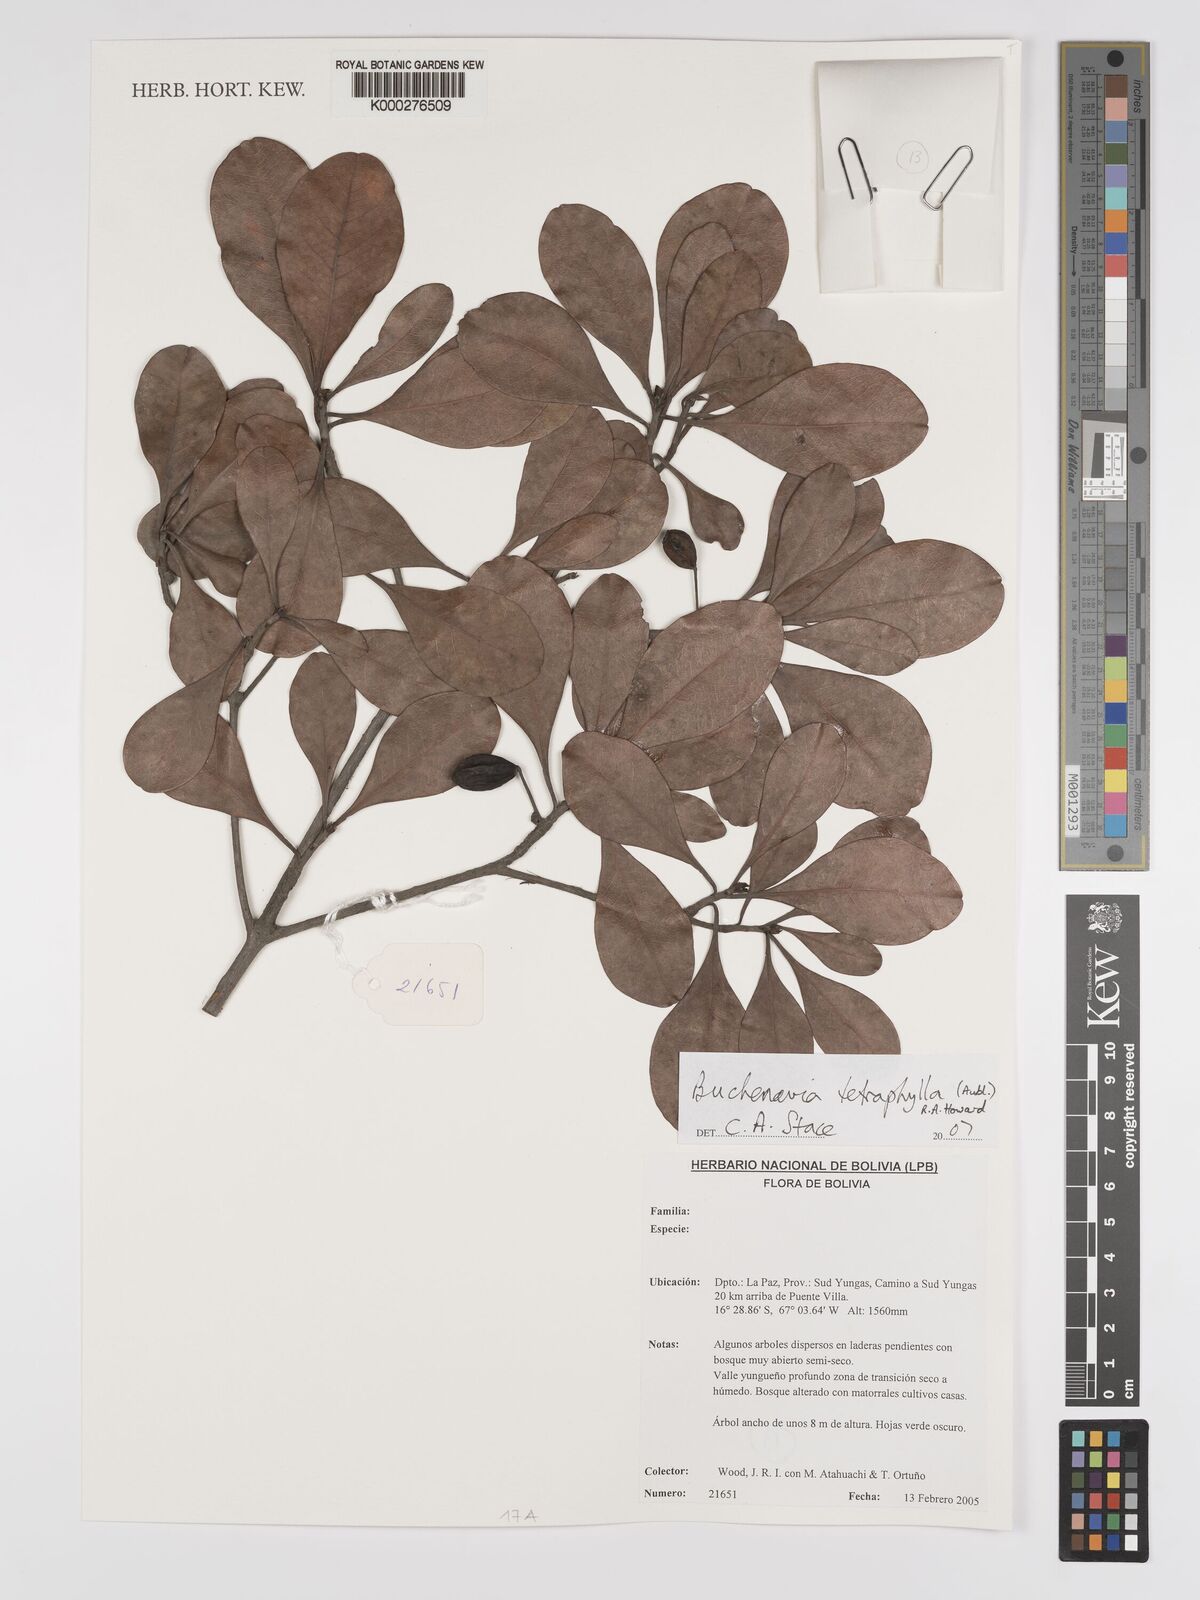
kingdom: Plantae
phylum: Tracheophyta
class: Magnoliopsida
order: Myrtales
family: Combretaceae
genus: Terminalia
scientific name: Terminalia tetraphylla
